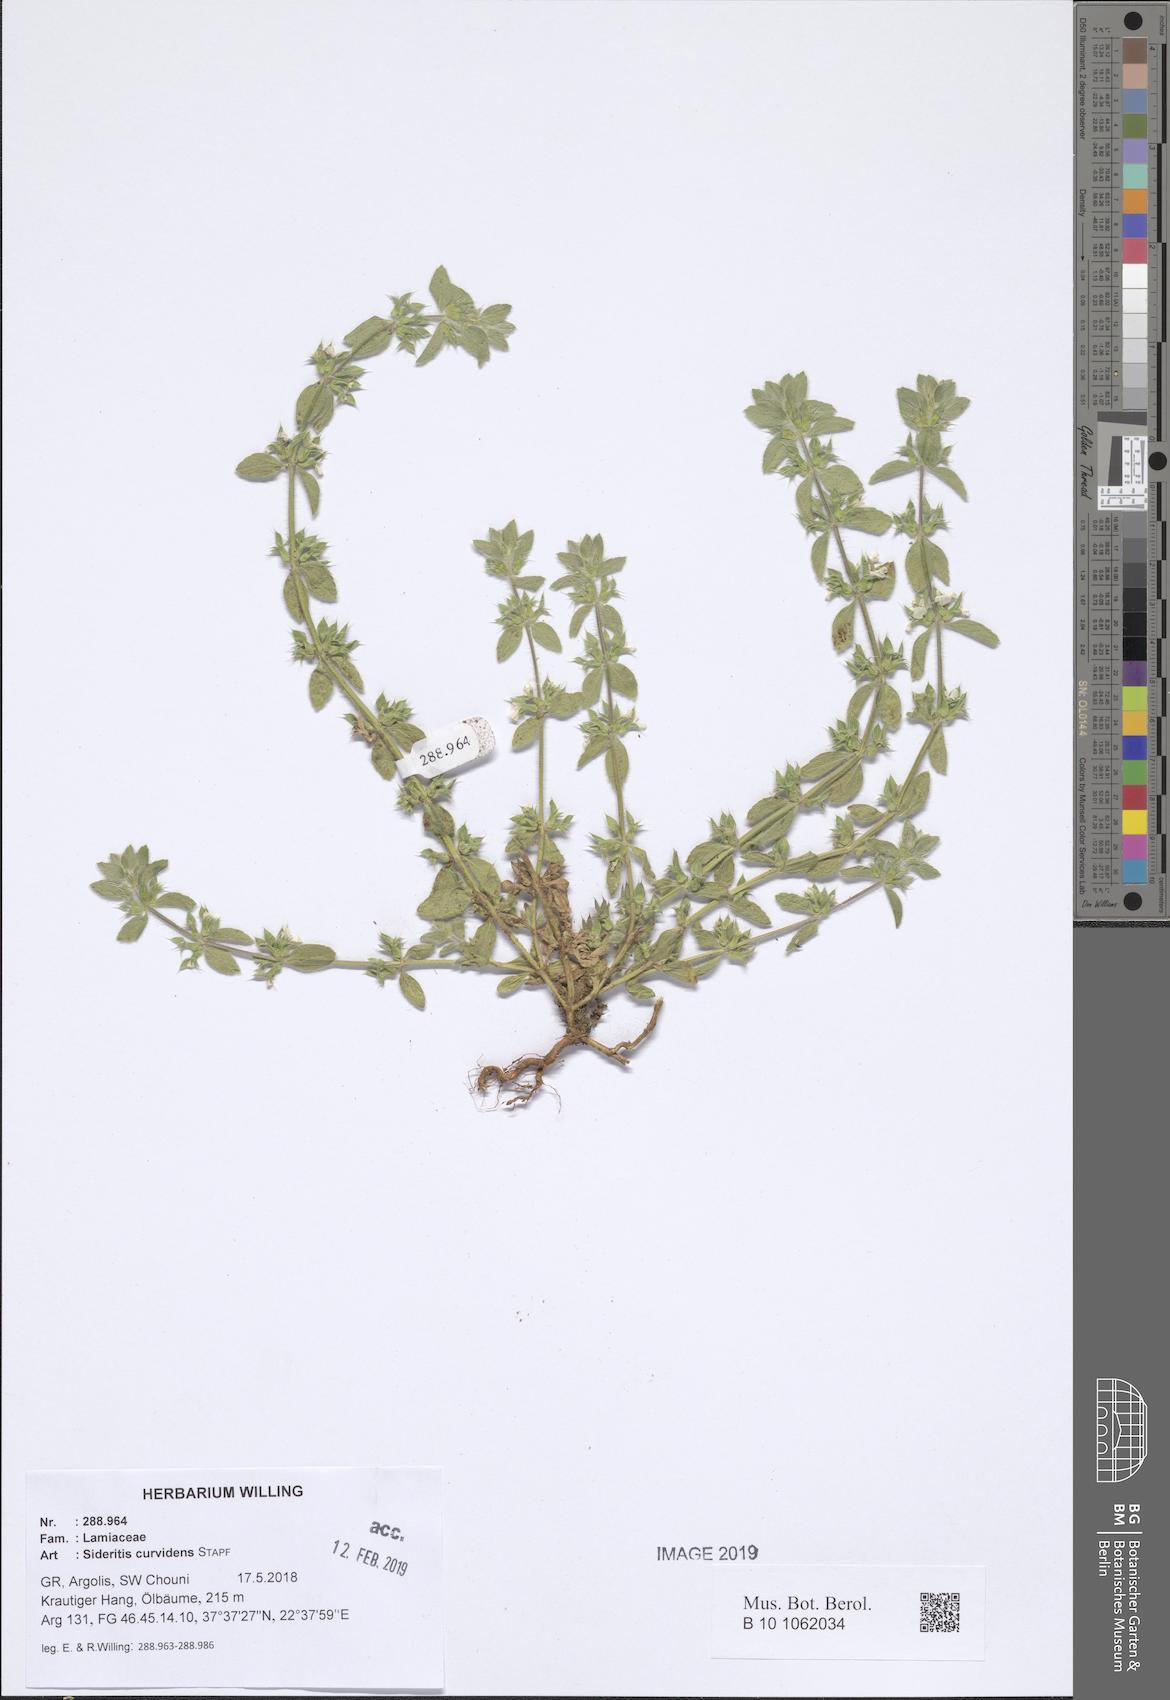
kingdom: Plantae
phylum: Tracheophyta
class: Magnoliopsida
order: Lamiales
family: Lamiaceae
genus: Sideritis
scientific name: Sideritis romana
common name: Simplebeak ironwort
